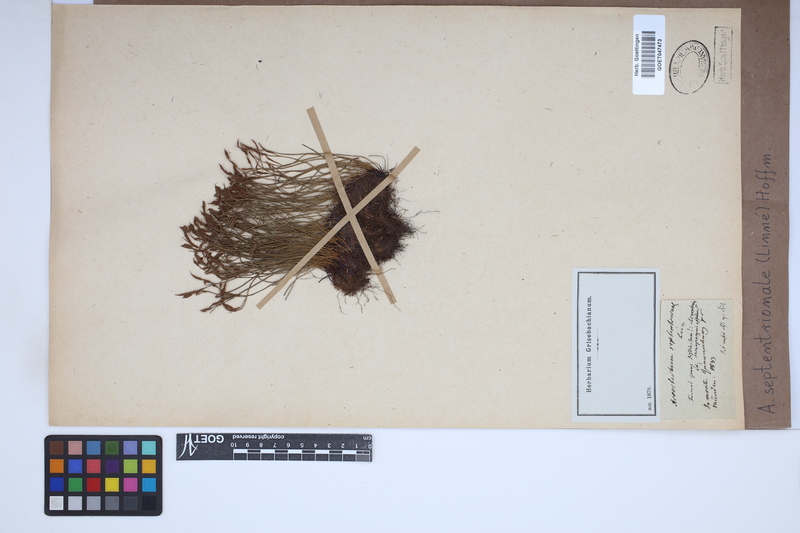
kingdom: Plantae
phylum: Tracheophyta
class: Polypodiopsida
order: Polypodiales
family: Aspleniaceae
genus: Asplenium
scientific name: Asplenium septentrionale
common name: Forked spleenwort
